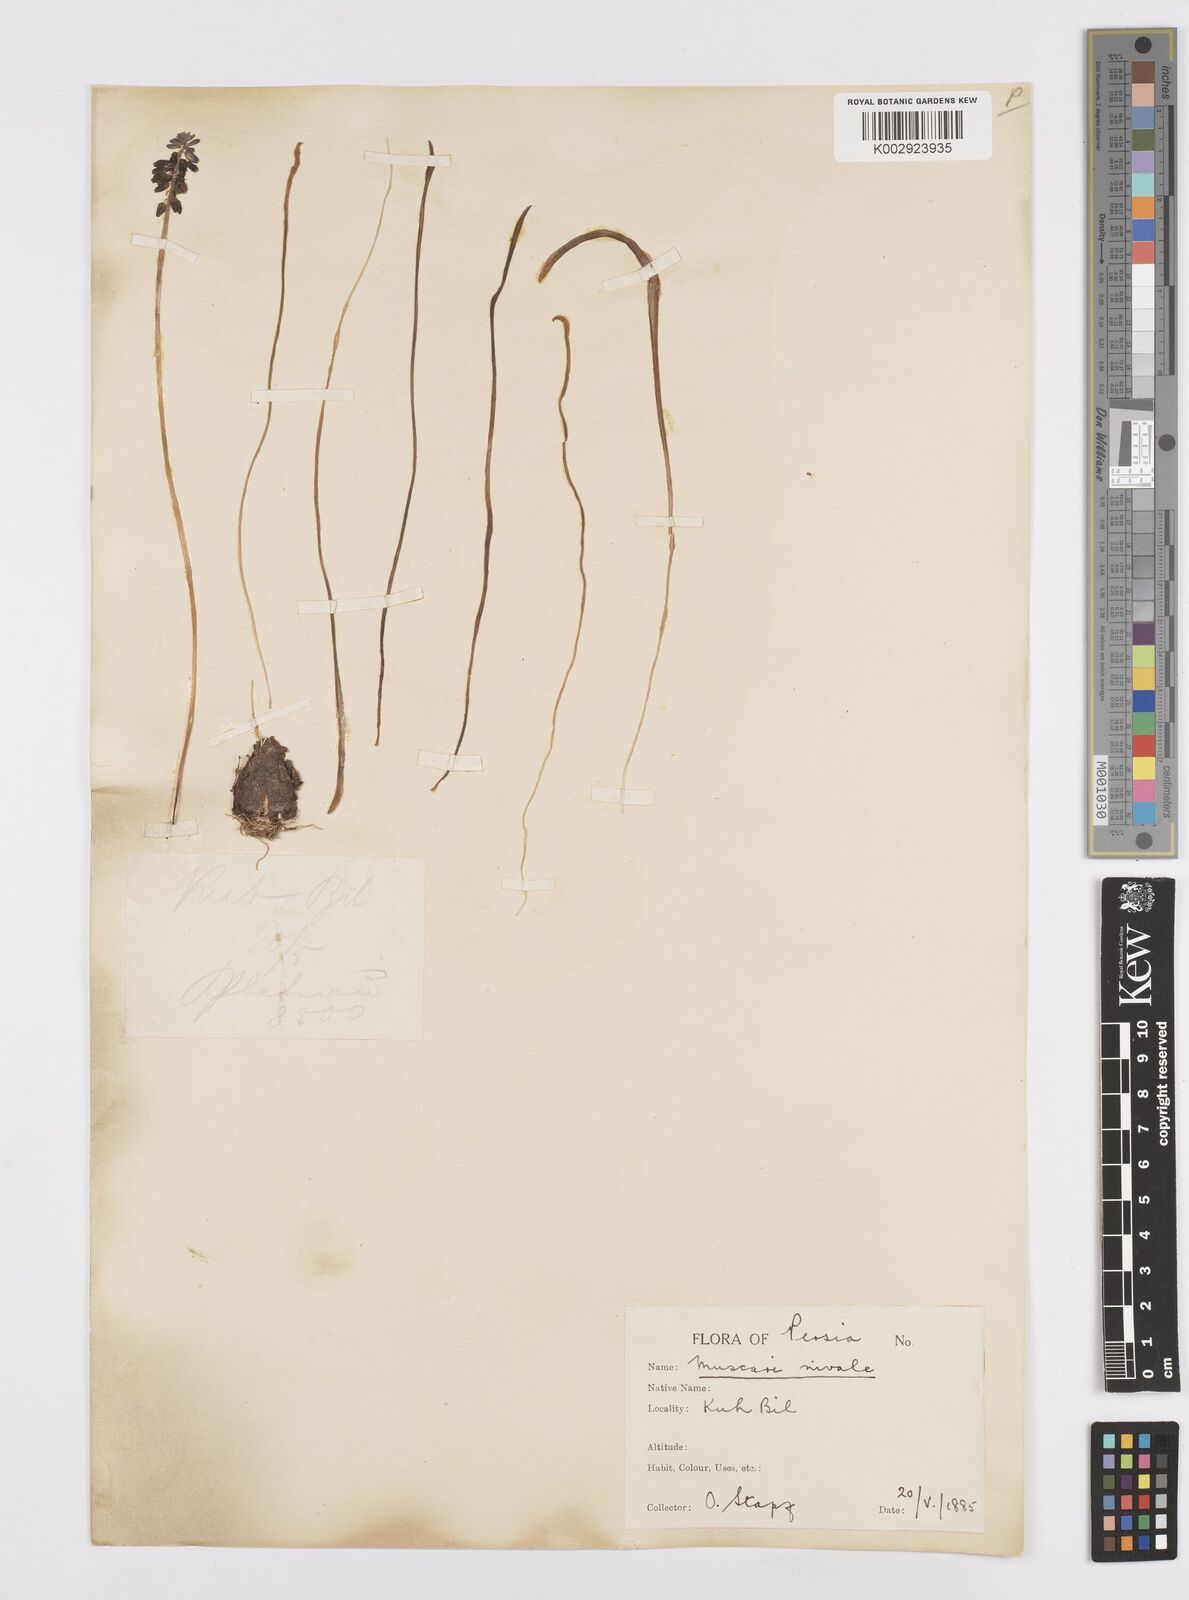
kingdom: Plantae
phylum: Tracheophyta
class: Liliopsida
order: Asparagales
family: Asparagaceae
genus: Muscari
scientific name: Muscari neglectum
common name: Grape-hyacinth
